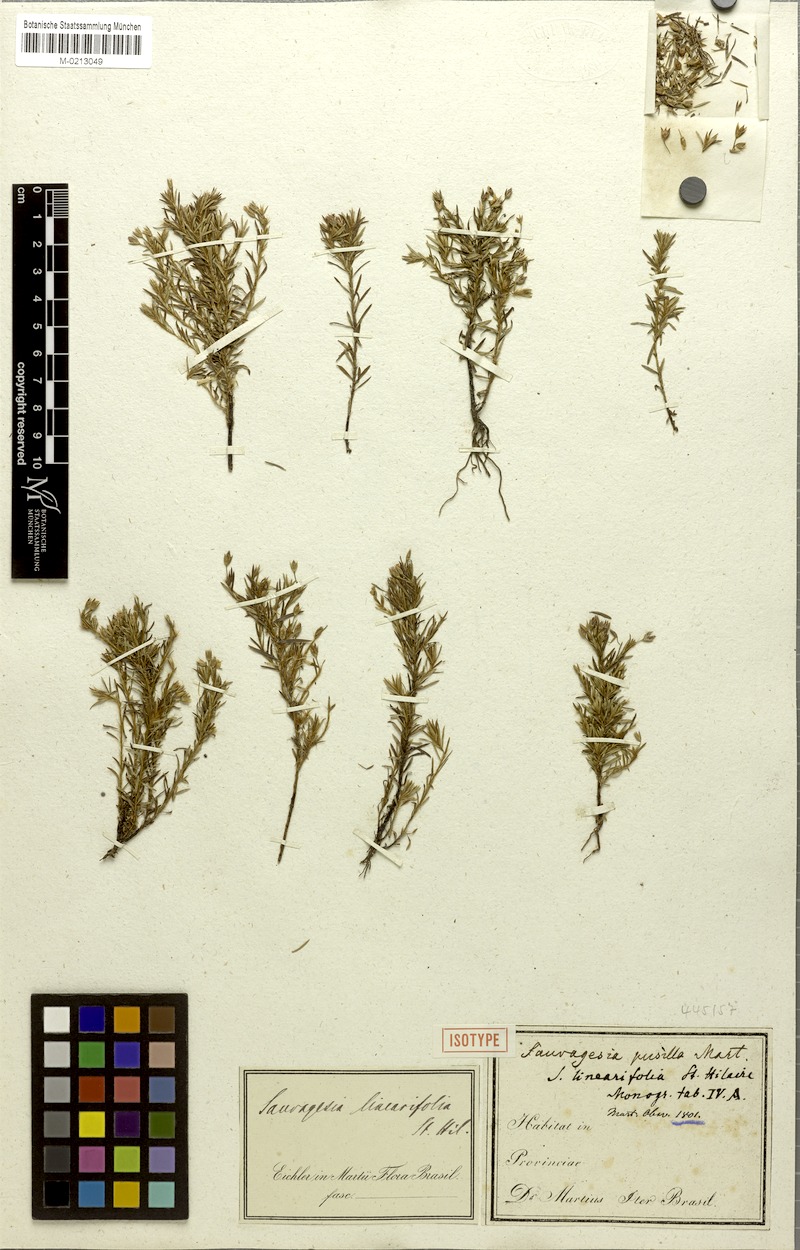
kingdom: Plantae
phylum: Tracheophyta
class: Magnoliopsida
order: Malpighiales
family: Ochnaceae
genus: Sauvagesia
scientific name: Sauvagesia linearifolia
